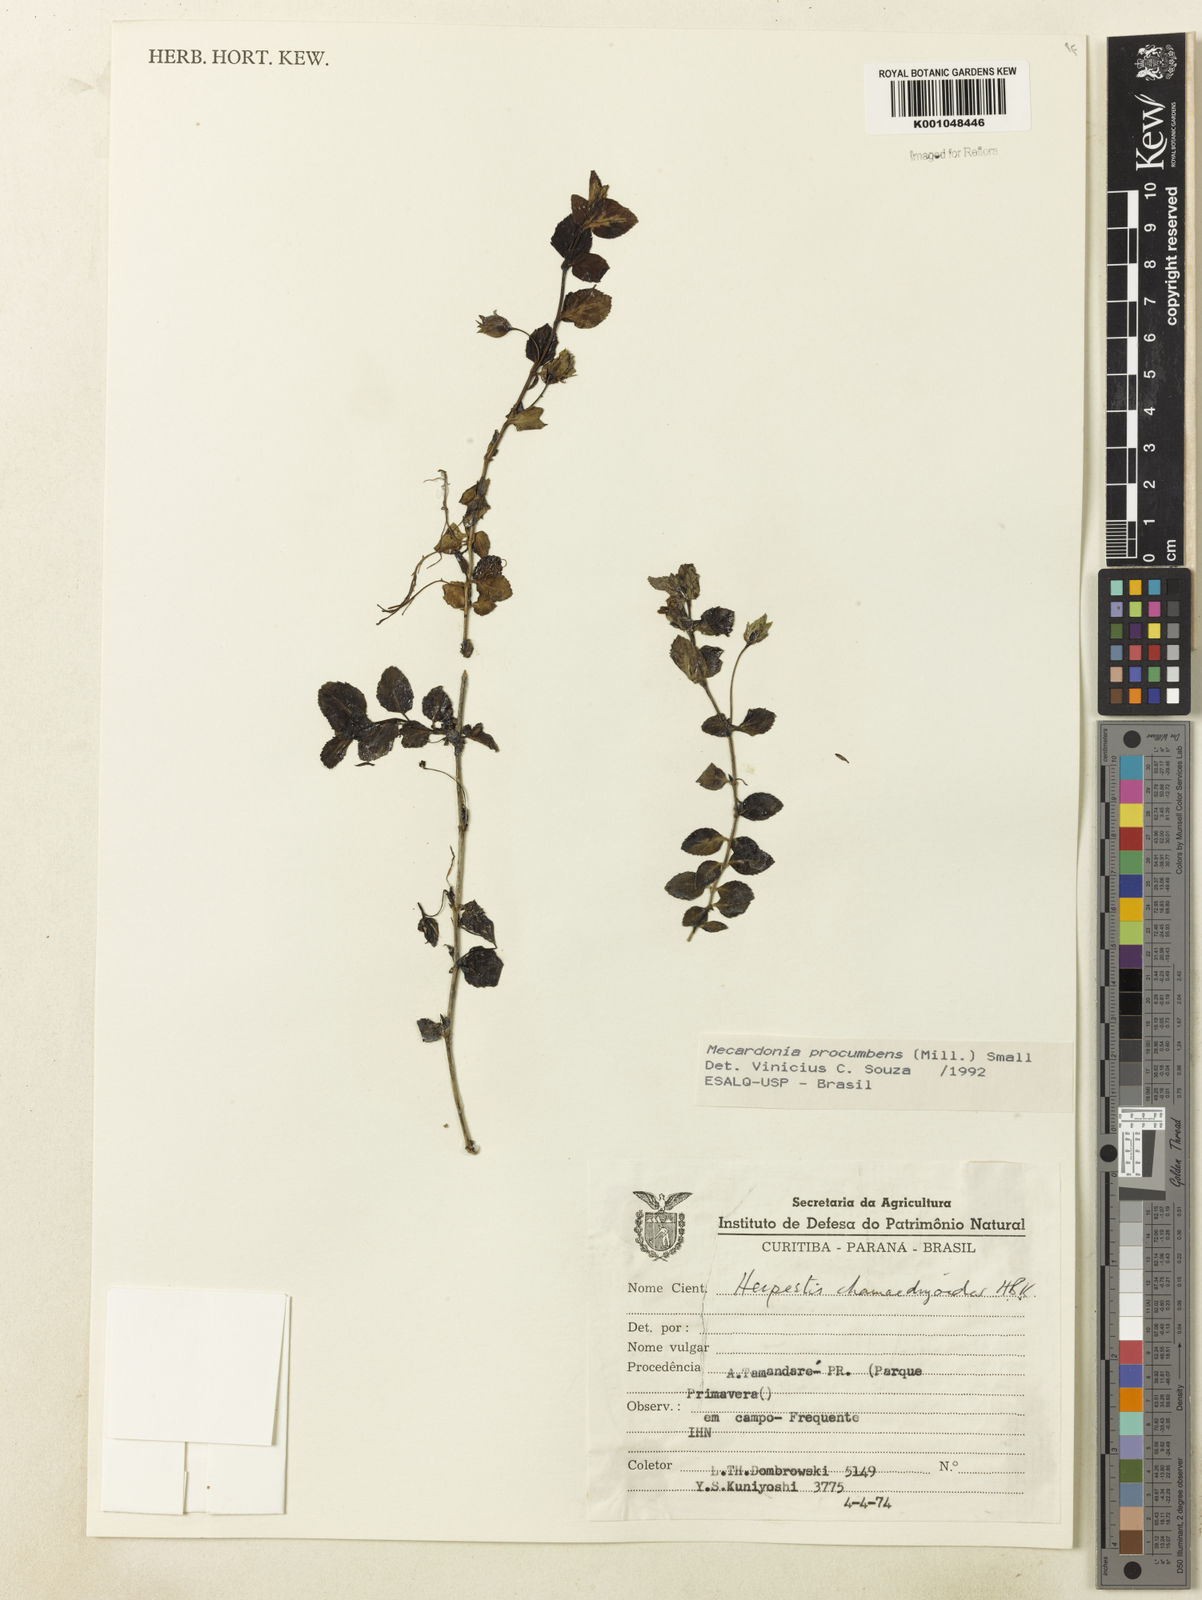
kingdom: Plantae
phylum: Tracheophyta
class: Magnoliopsida
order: Lamiales
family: Plantaginaceae
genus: Mecardonia
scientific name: Mecardonia procumbens
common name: Baby jump-up
